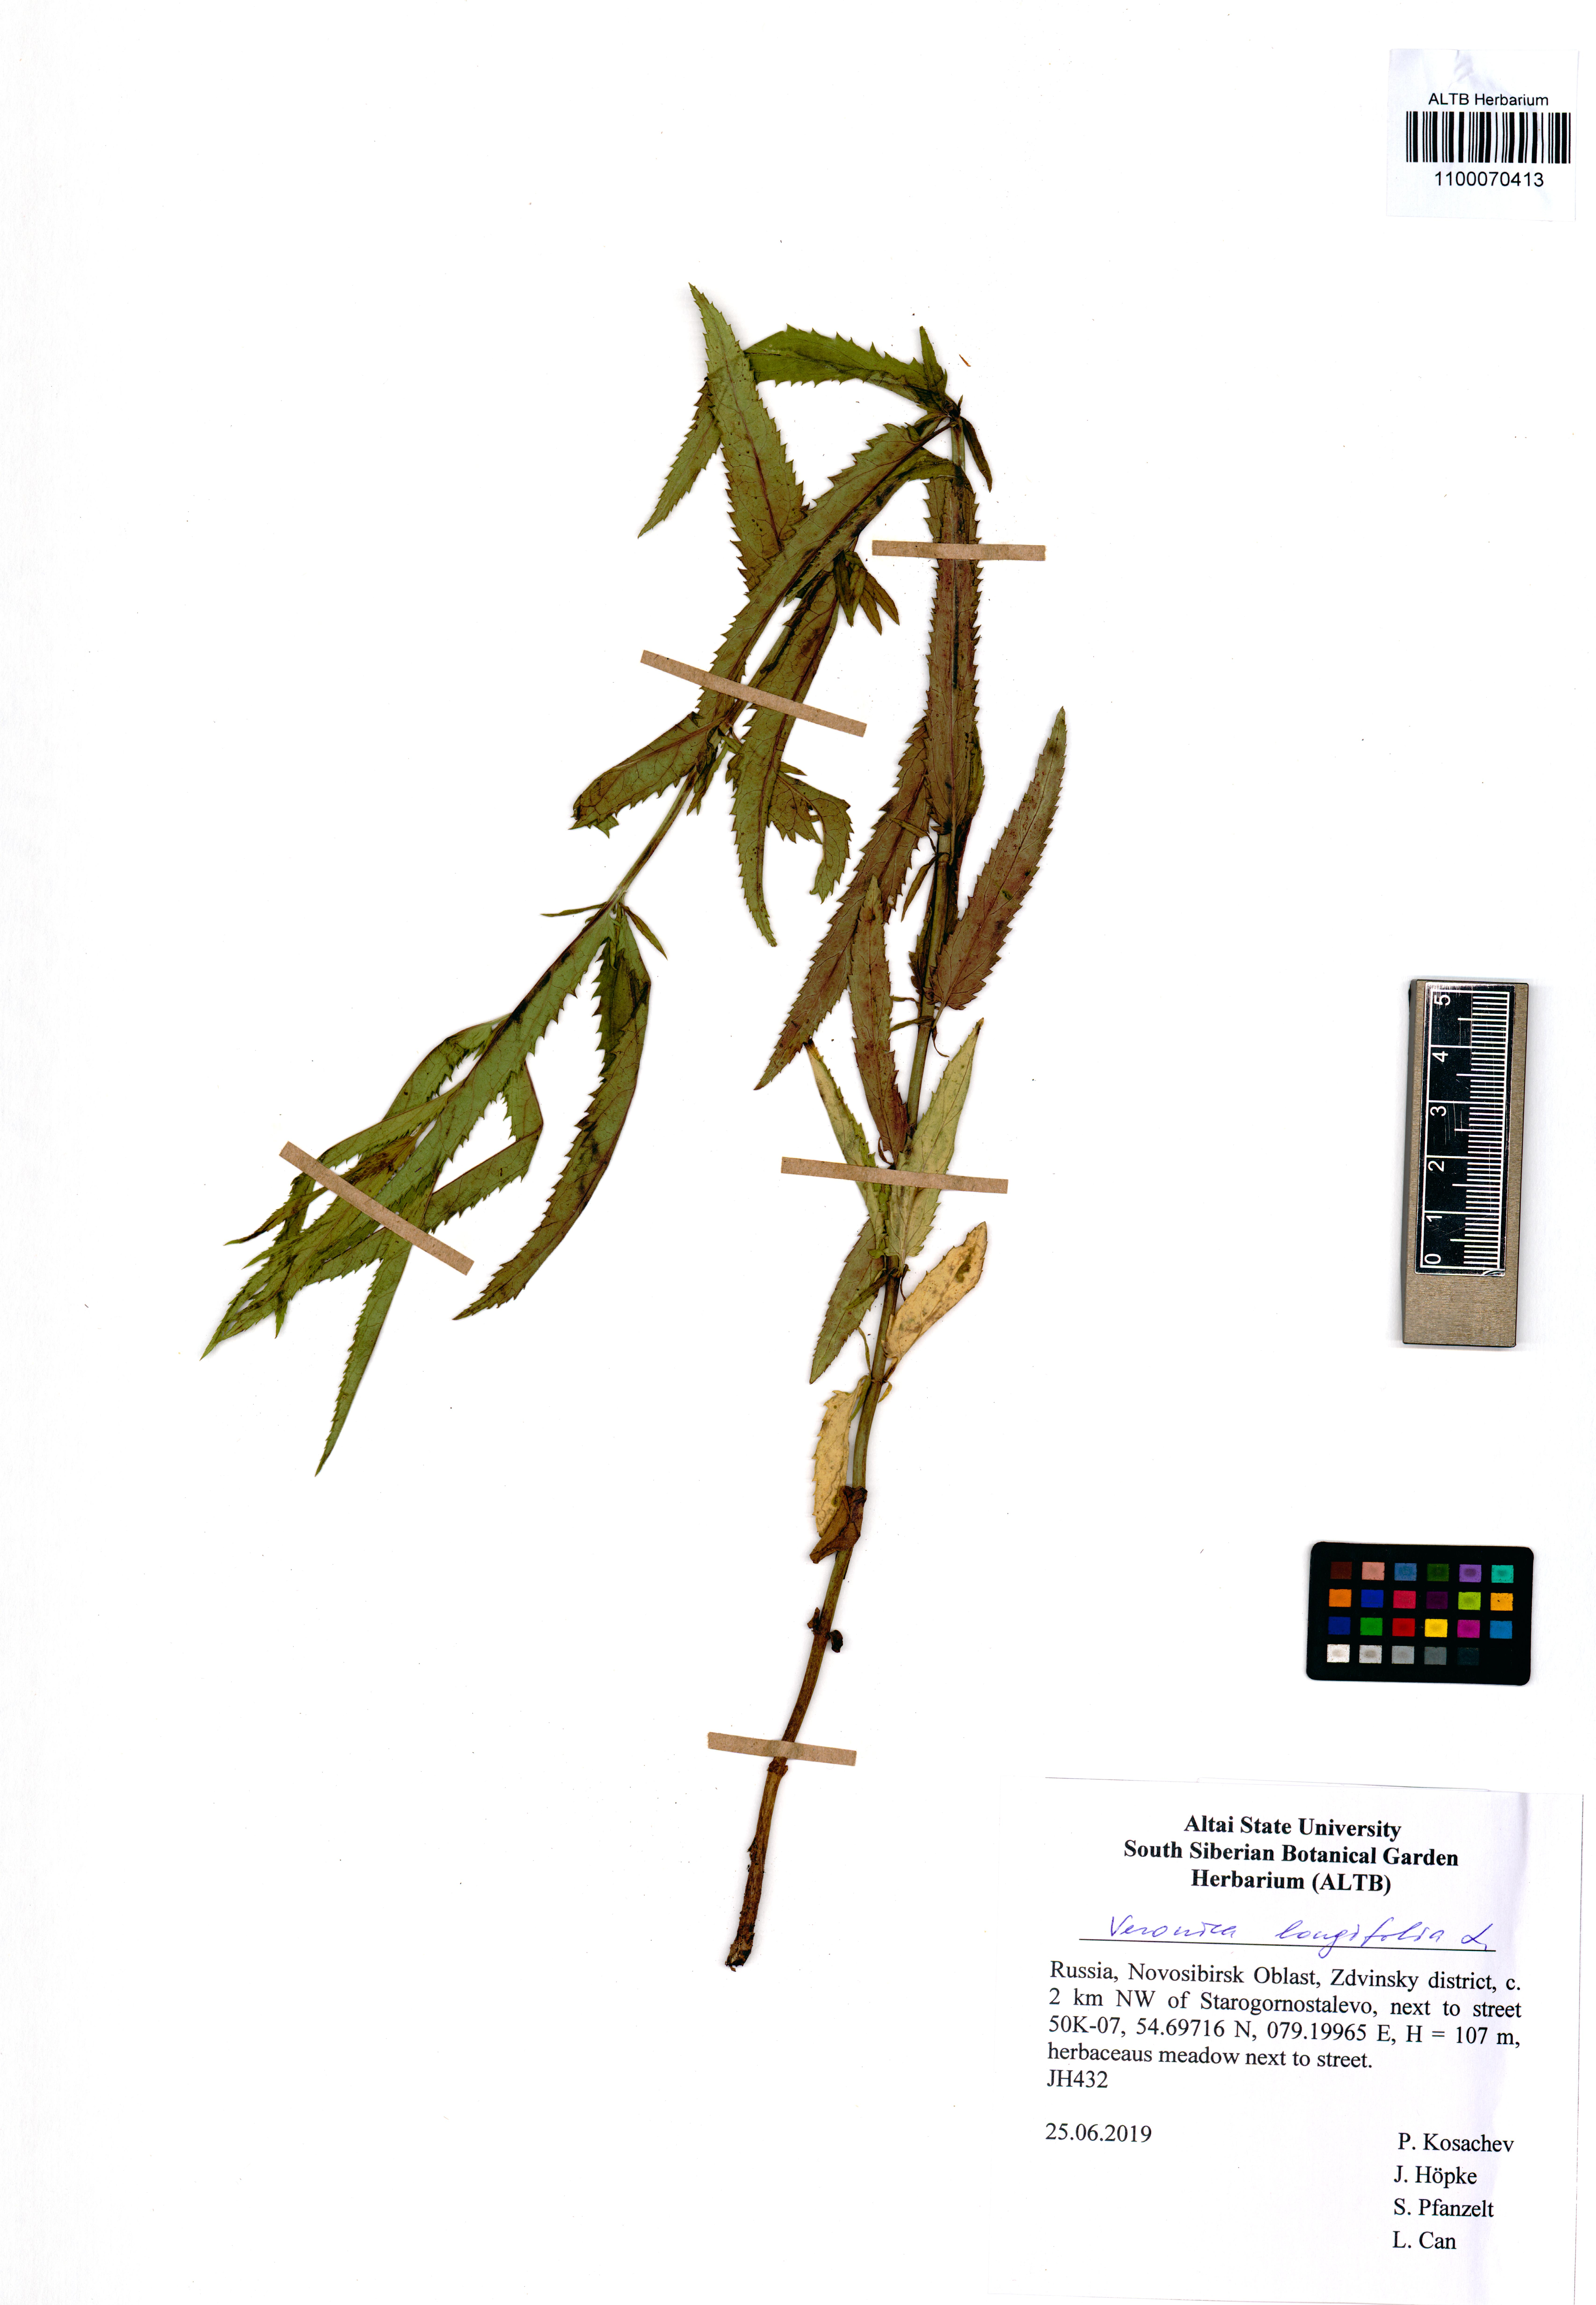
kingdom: Plantae
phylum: Tracheophyta
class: Magnoliopsida
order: Lamiales
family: Plantaginaceae
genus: Veronica
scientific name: Veronica longifolia
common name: Garden speedwell
